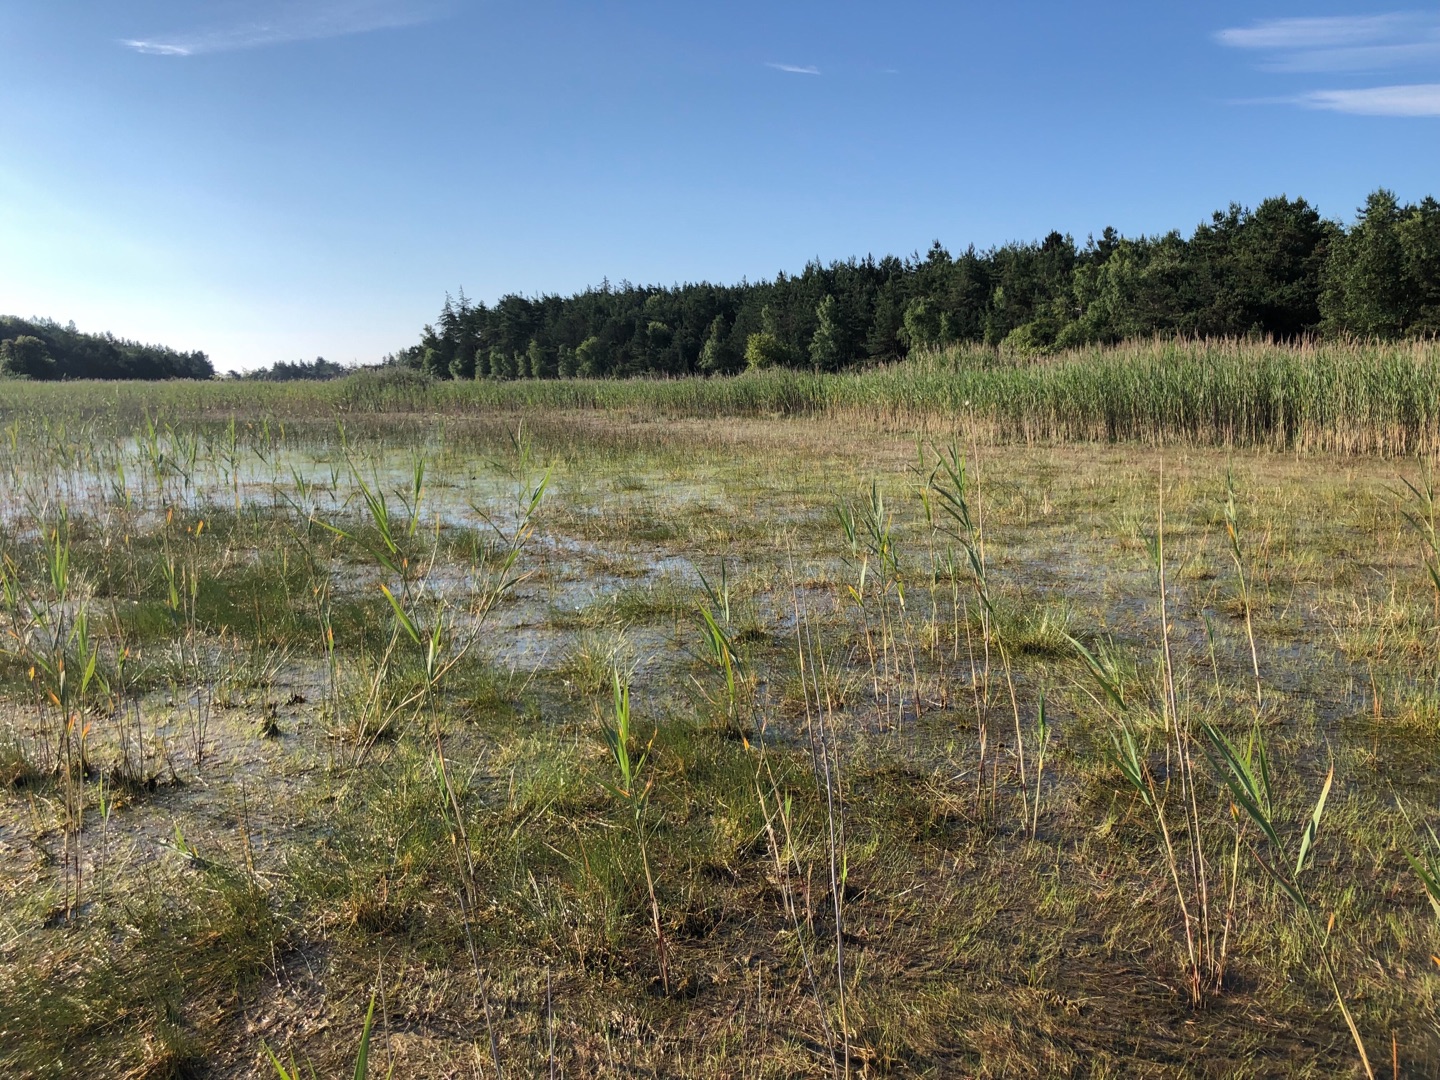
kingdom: Plantae
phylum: Tracheophyta
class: Polypodiopsida
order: Salviniales
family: Marsileaceae
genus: Pilularia
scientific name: Pilularia globulifera
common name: Pilledrager
